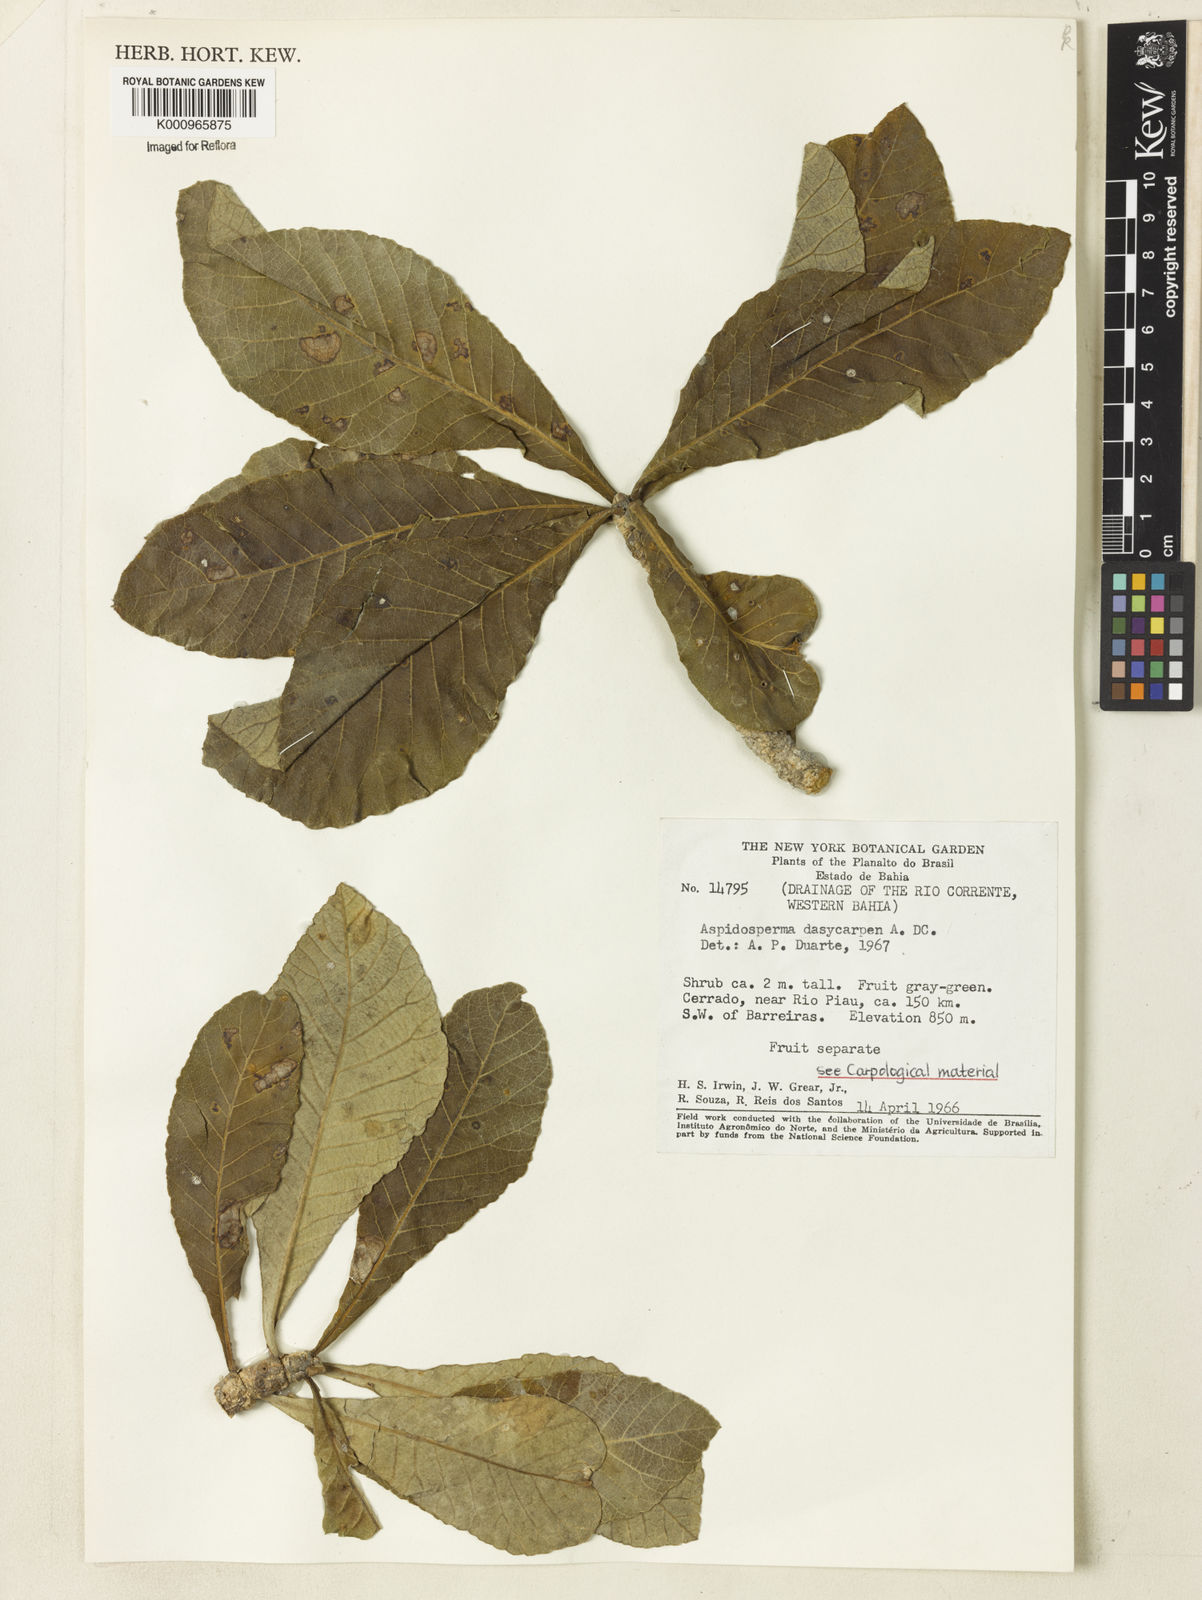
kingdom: Plantae
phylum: Tracheophyta
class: Magnoliopsida
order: Gentianales
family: Apocynaceae
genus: Aspidosperma
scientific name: Aspidosperma tomentosum
